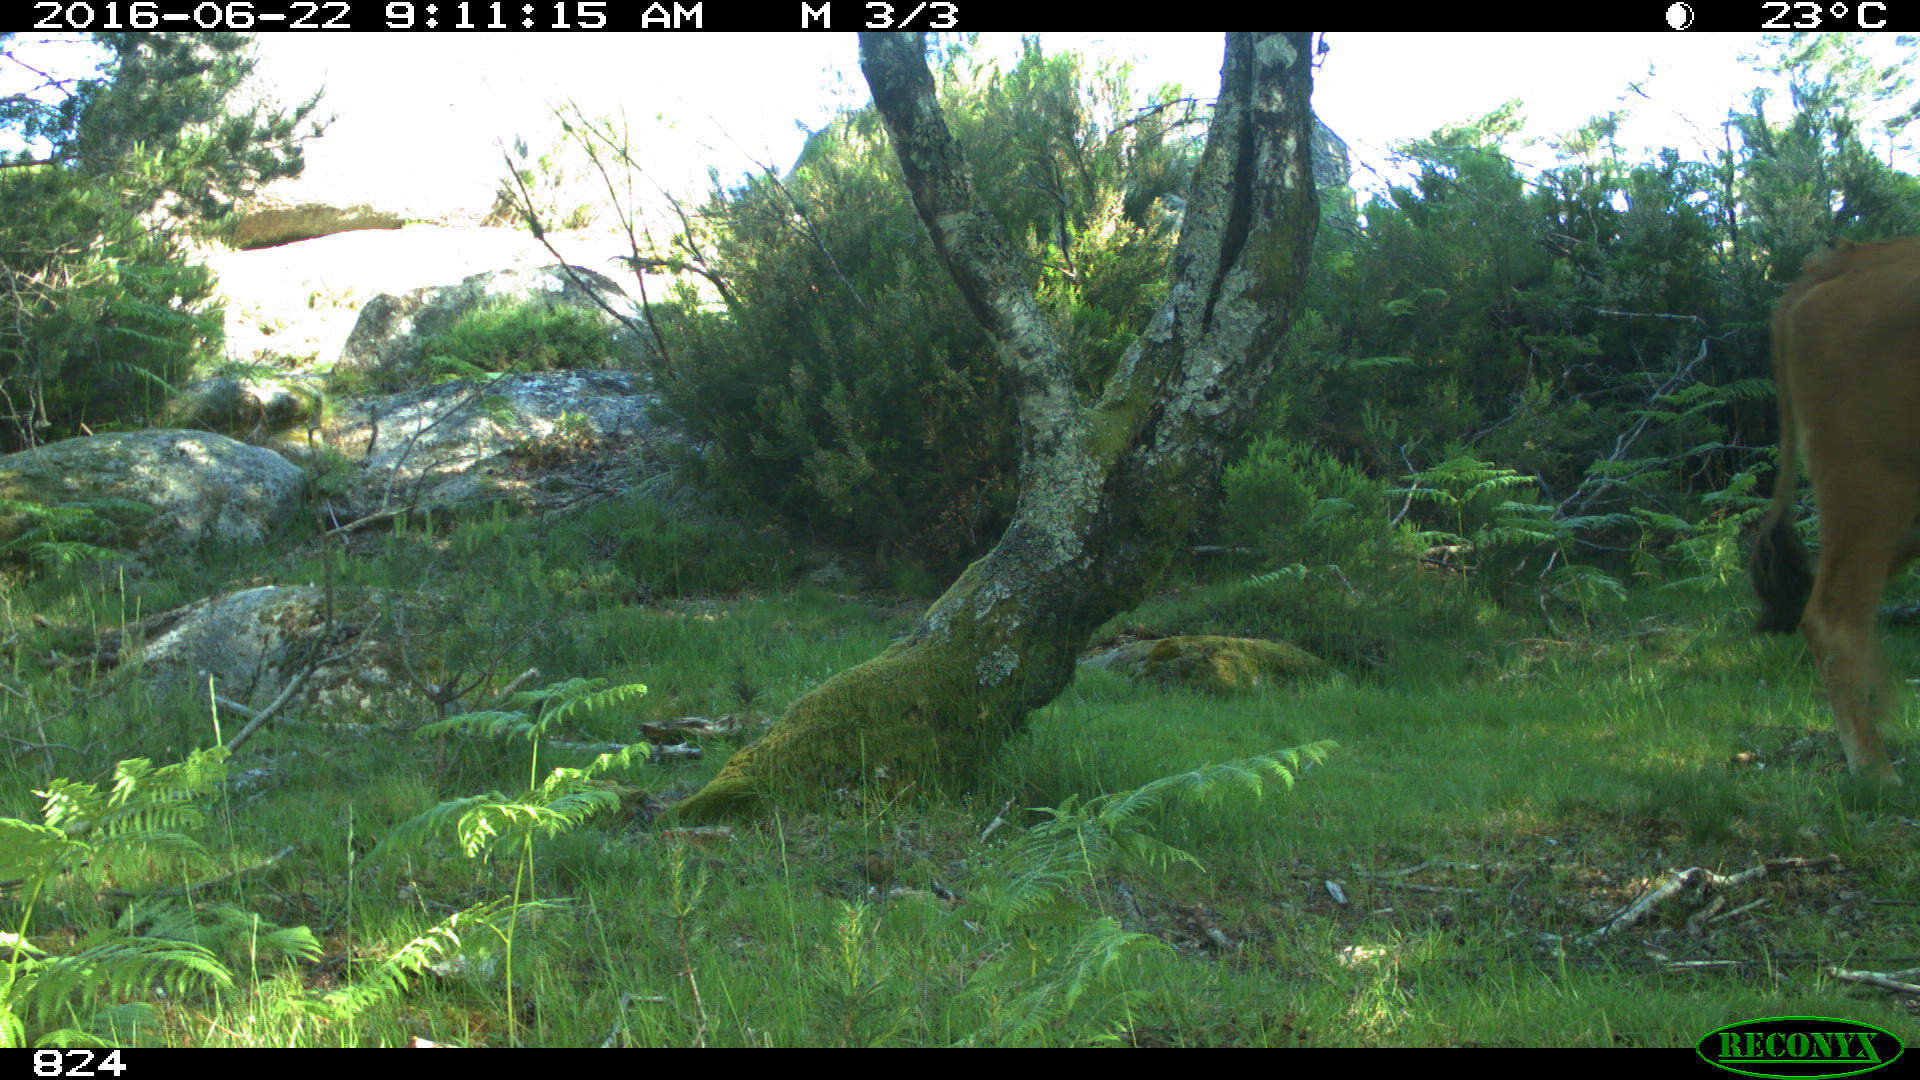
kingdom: Animalia
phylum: Chordata
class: Mammalia
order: Artiodactyla
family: Bovidae
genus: Bos
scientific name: Bos taurus
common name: Domesticated cattle
